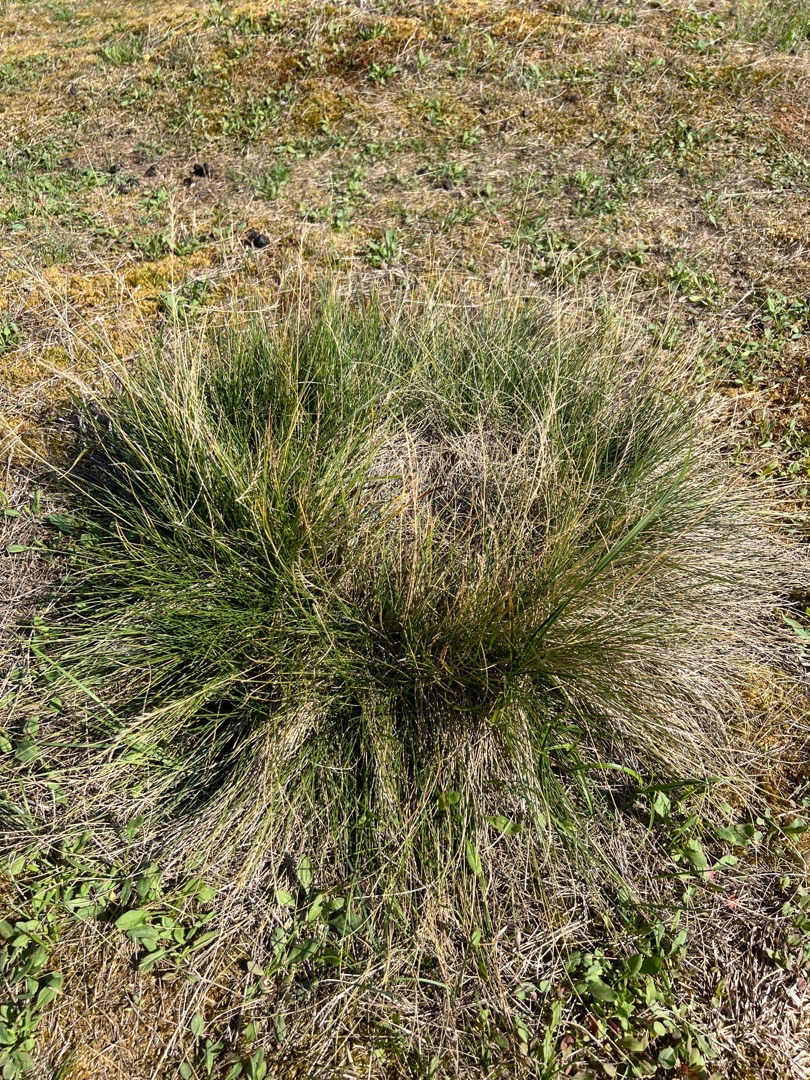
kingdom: Plantae
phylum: Tracheophyta
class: Liliopsida
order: Poales
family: Poaceae
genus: Nardus
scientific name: Nardus stricta
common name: Katteskæg
